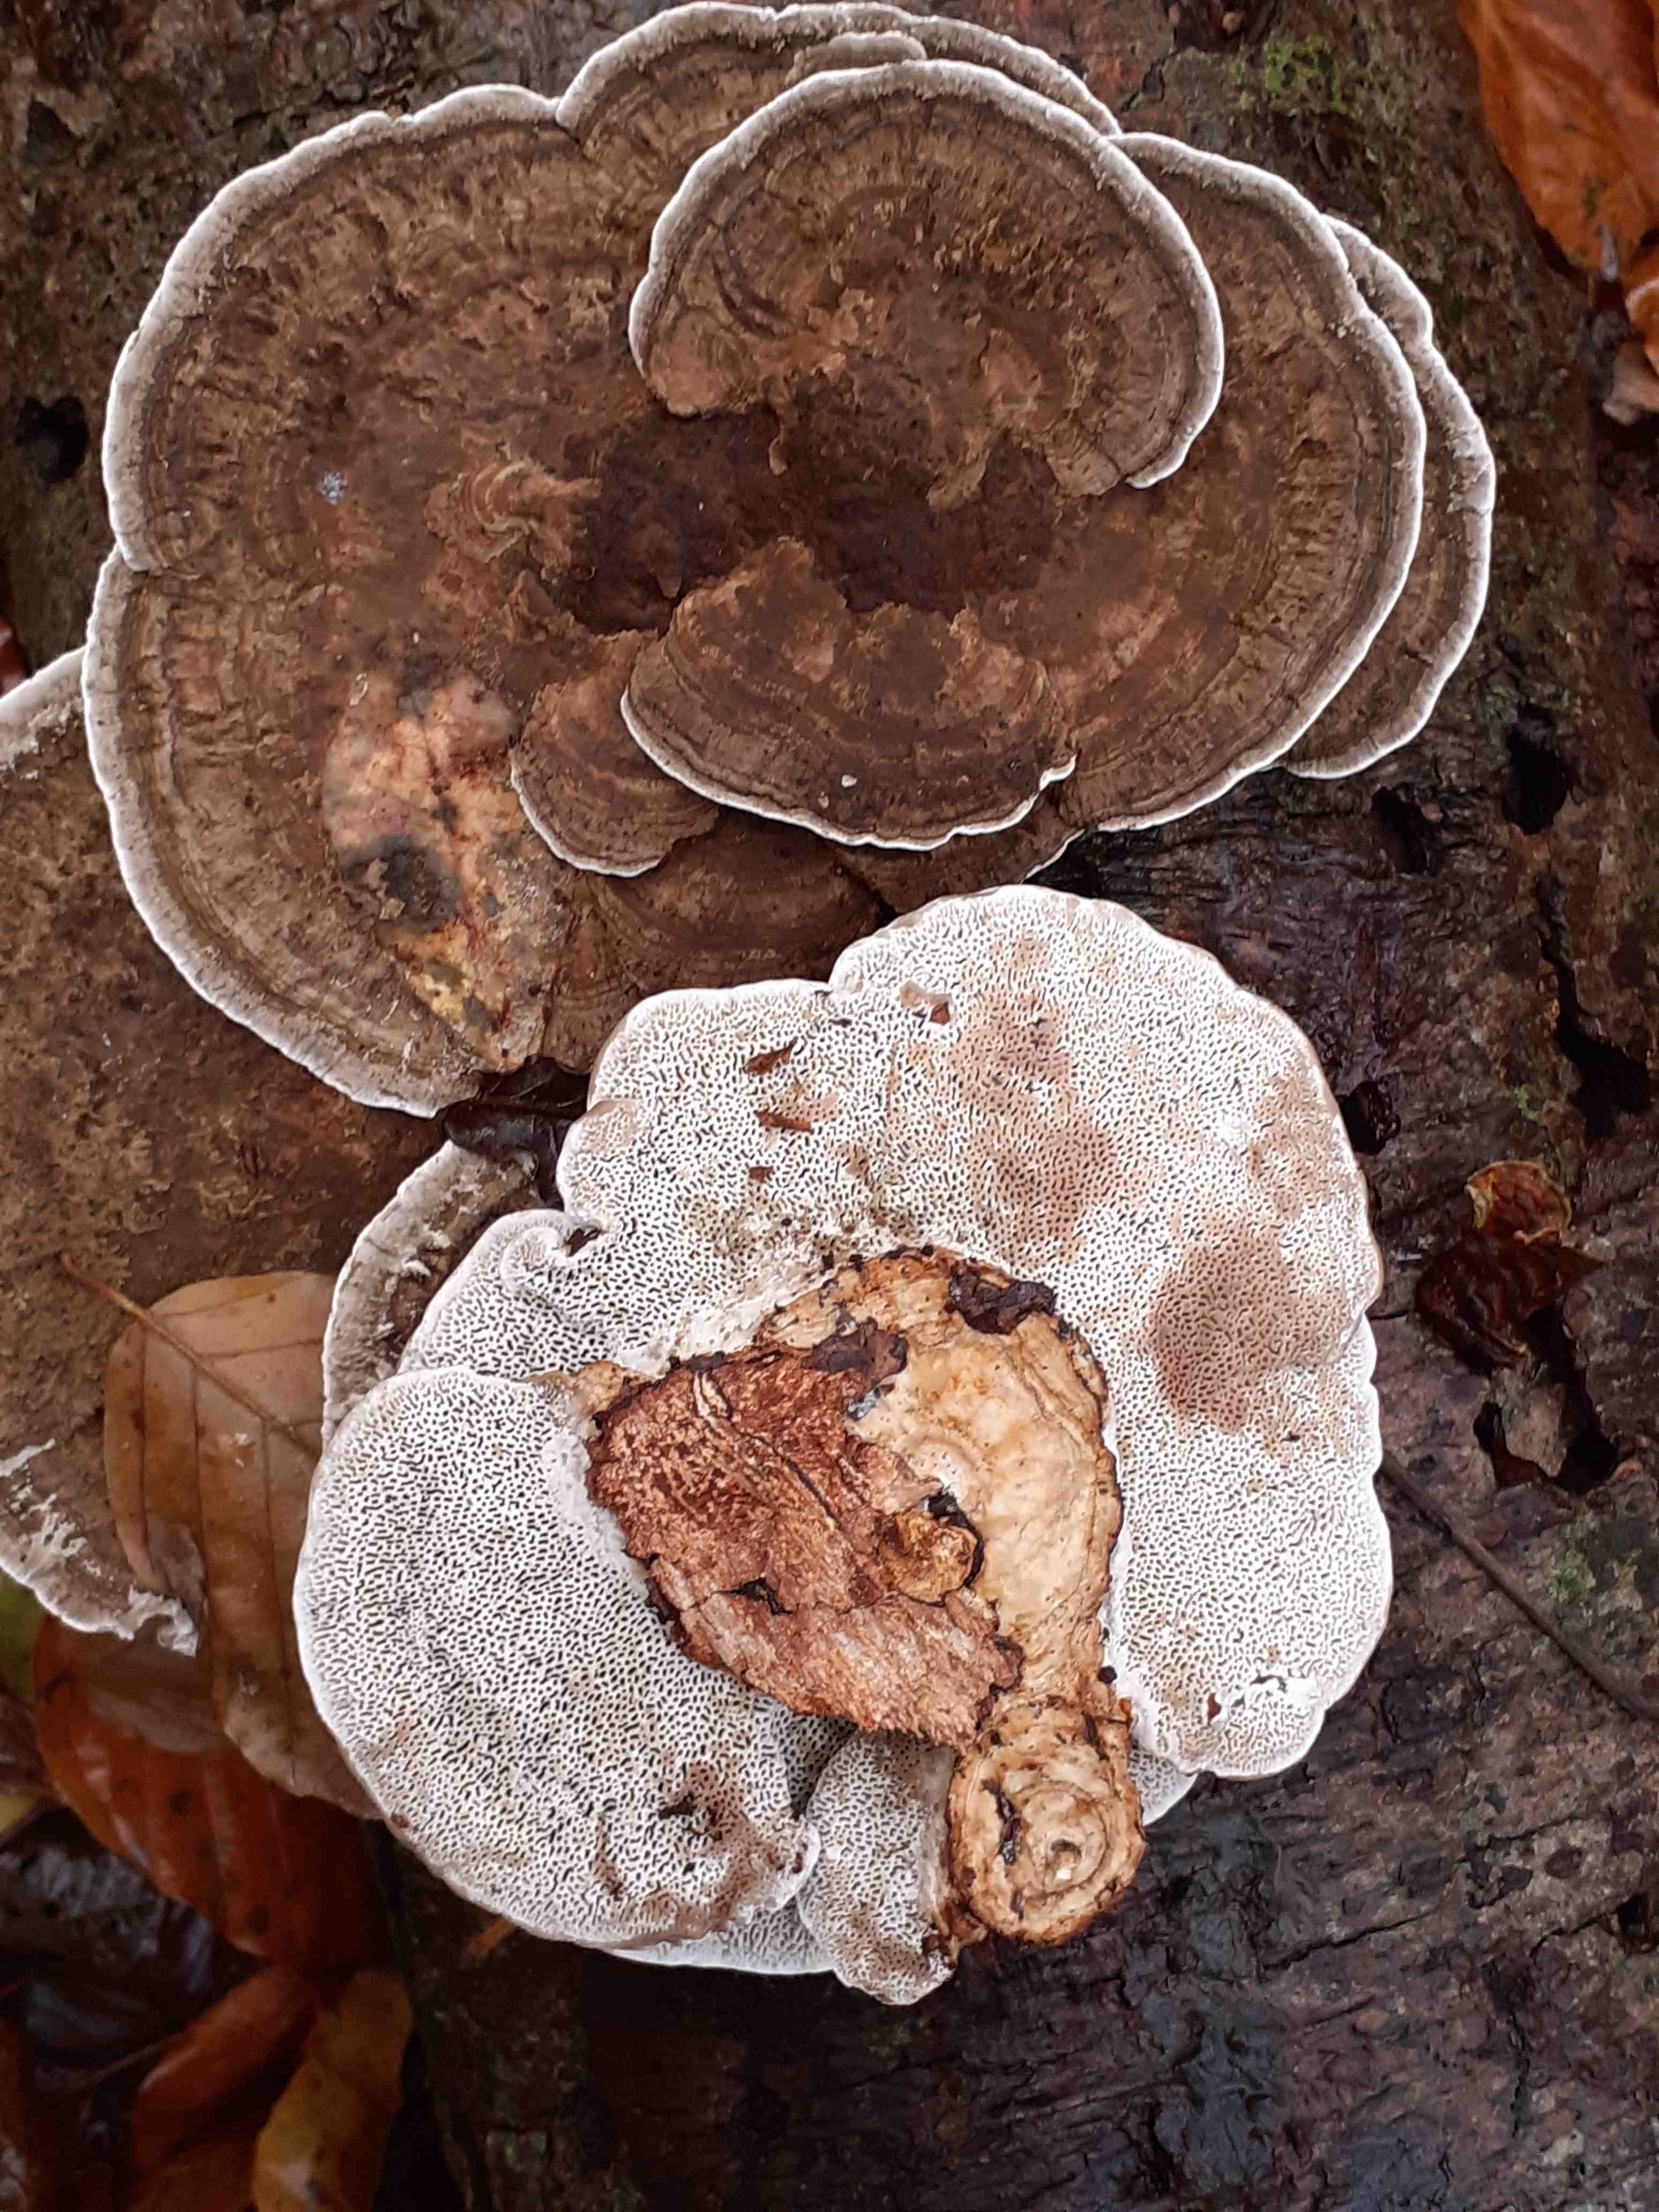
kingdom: Fungi
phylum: Basidiomycota
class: Agaricomycetes
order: Polyporales
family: Polyporaceae
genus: Daedaleopsis
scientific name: Daedaleopsis confragosa
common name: rødmende læderporesvamp
